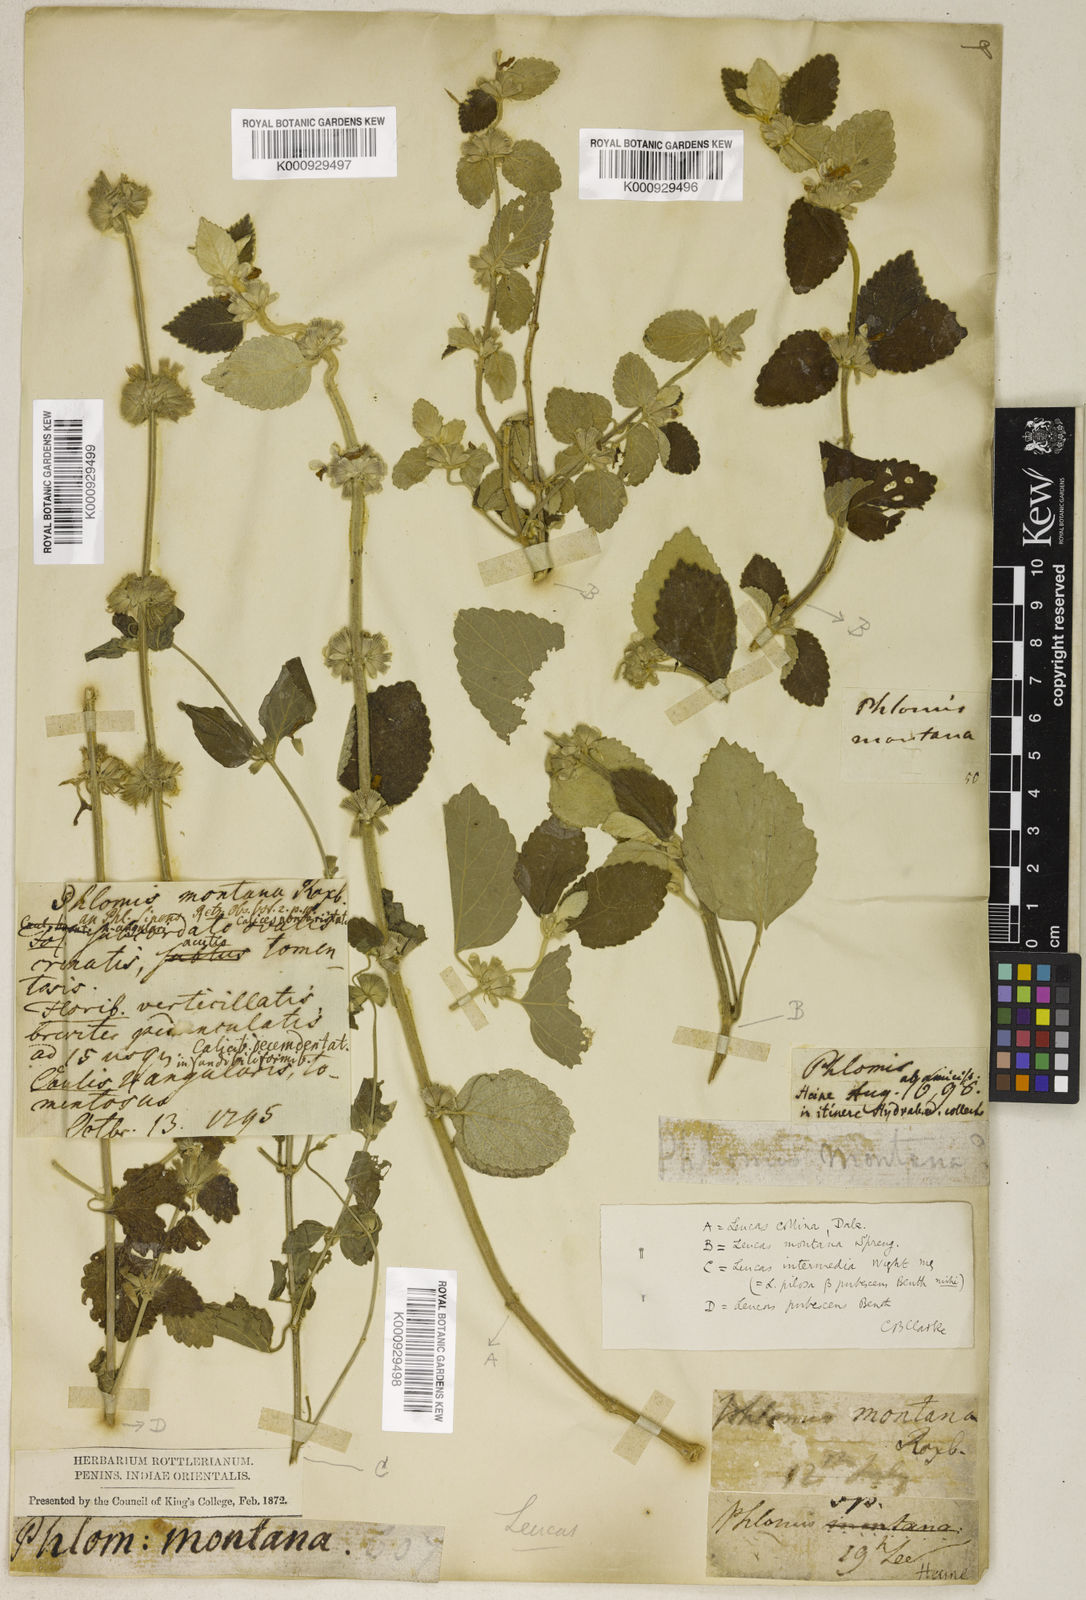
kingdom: Plantae
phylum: Tracheophyta
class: Magnoliopsida
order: Lamiales
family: Lamiaceae
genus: Leucas
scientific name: Leucas montana
